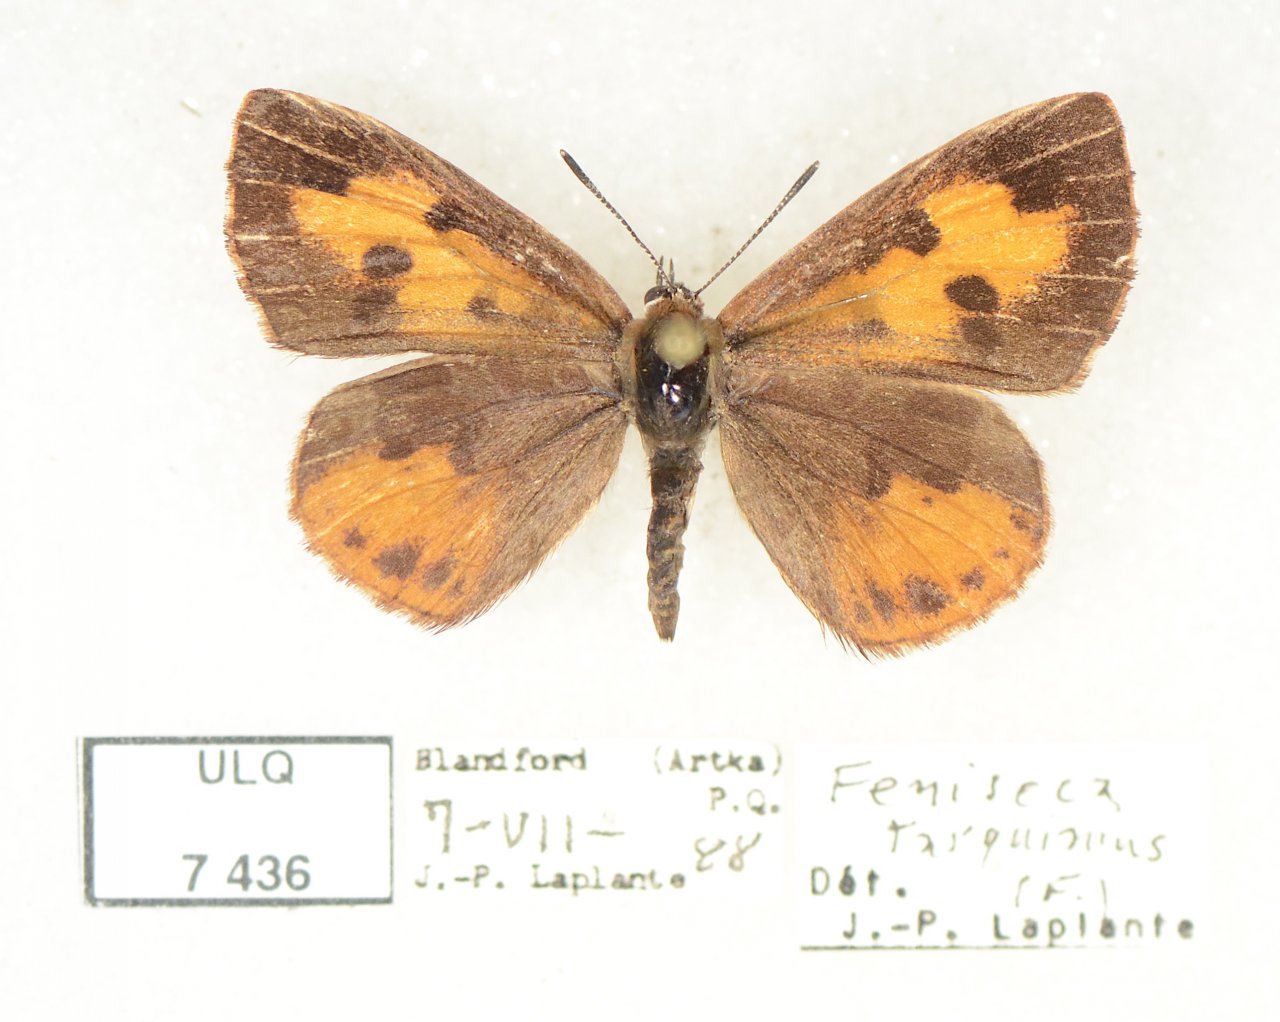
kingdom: Animalia
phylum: Arthropoda
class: Insecta
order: Lepidoptera
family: Lycaenidae
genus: Feniseca
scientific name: Feniseca tarquinius
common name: Harvester
